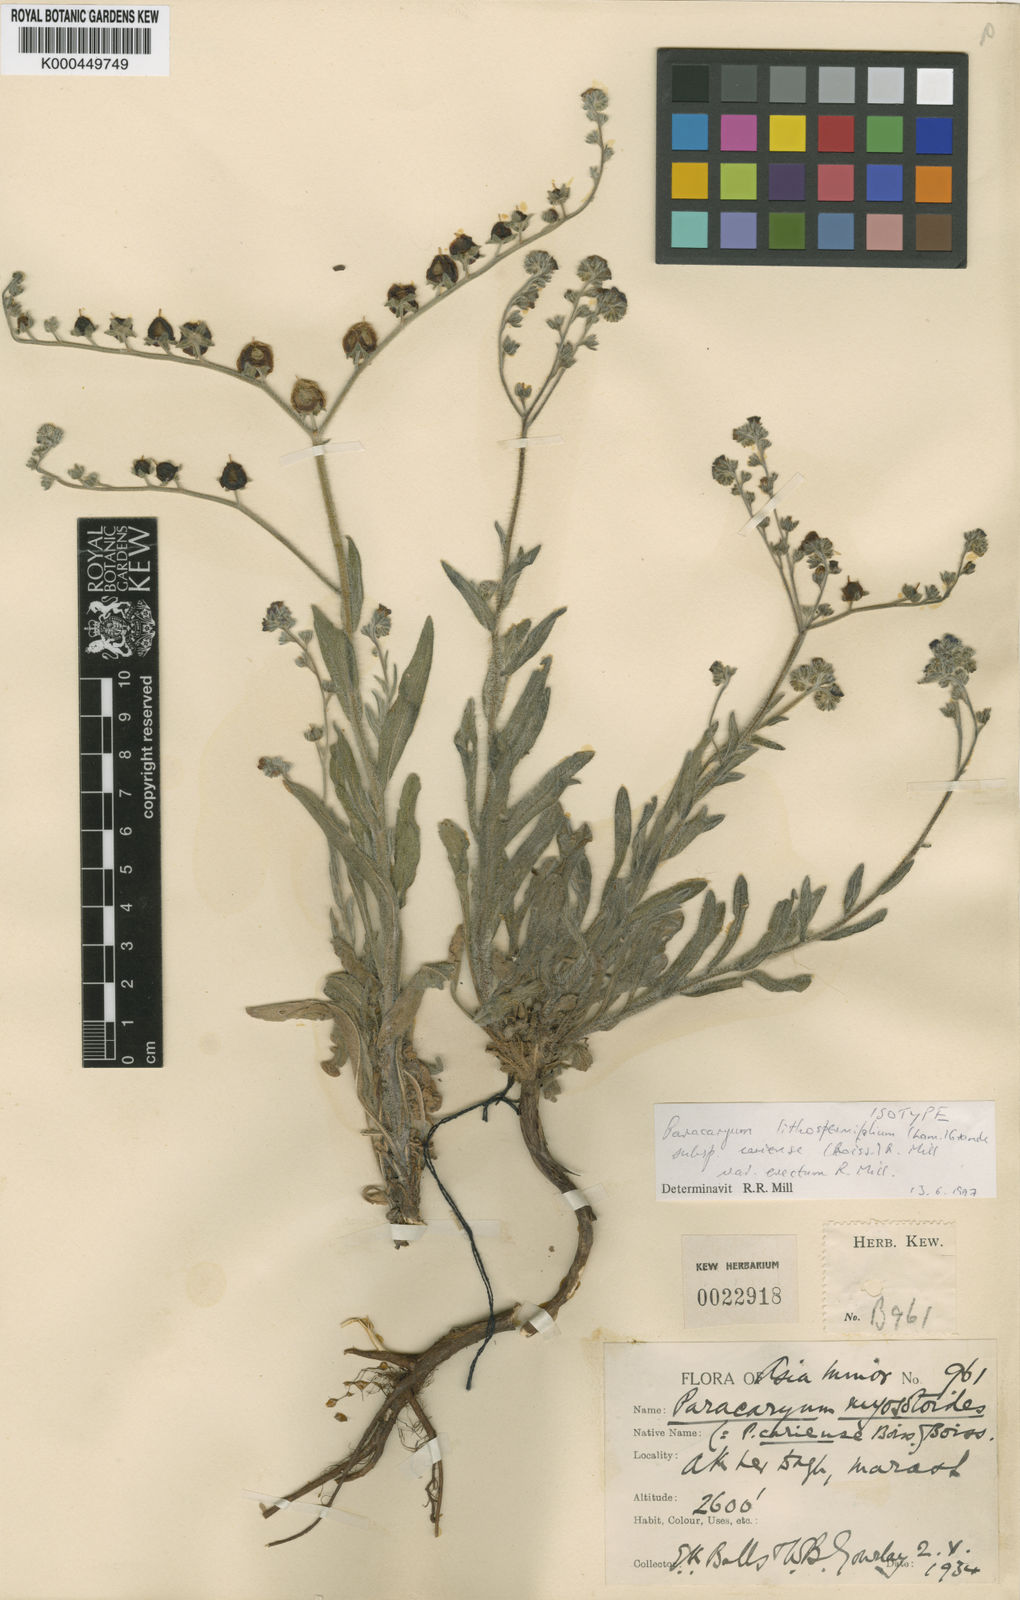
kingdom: Plantae
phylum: Tracheophyta
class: Magnoliopsida
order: Boraginales
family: Boraginaceae
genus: Paracaryum
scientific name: Paracaryum lithospermifolium
